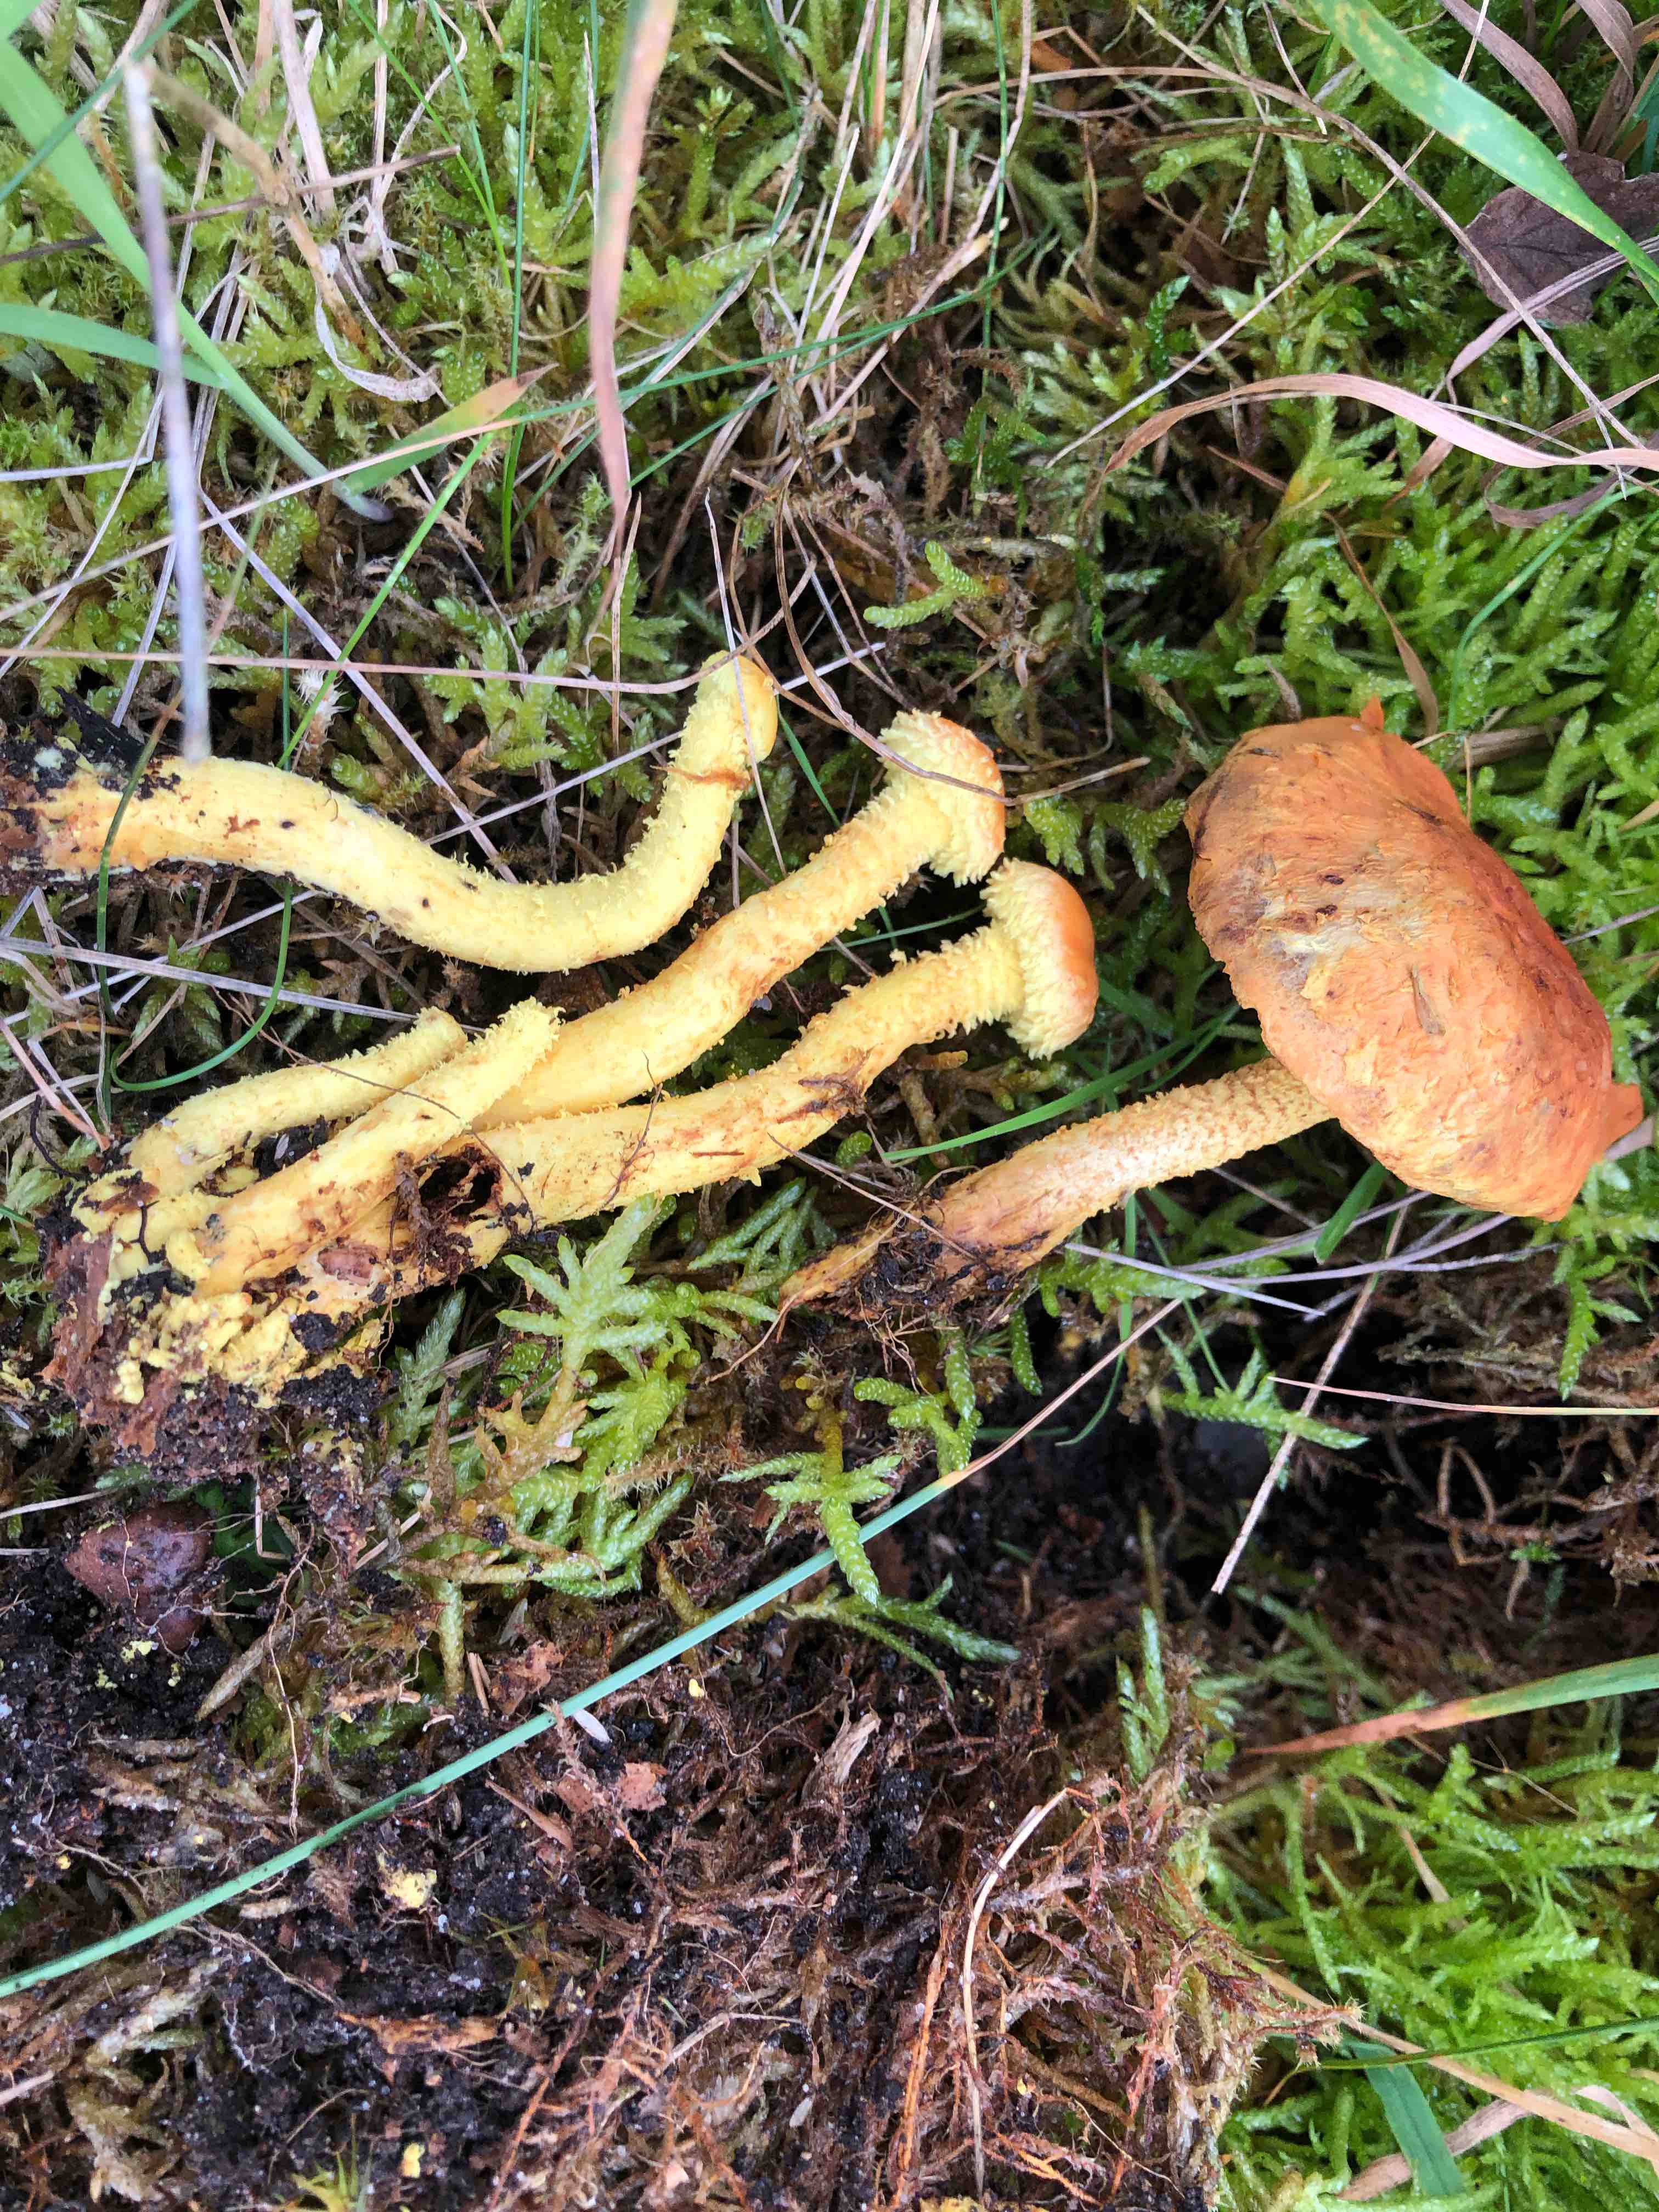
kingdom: Fungi
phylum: Basidiomycota
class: Agaricomycetes
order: Agaricales
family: Strophariaceae
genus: Pholiota
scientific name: Pholiota flammans
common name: flamme-skælhat
